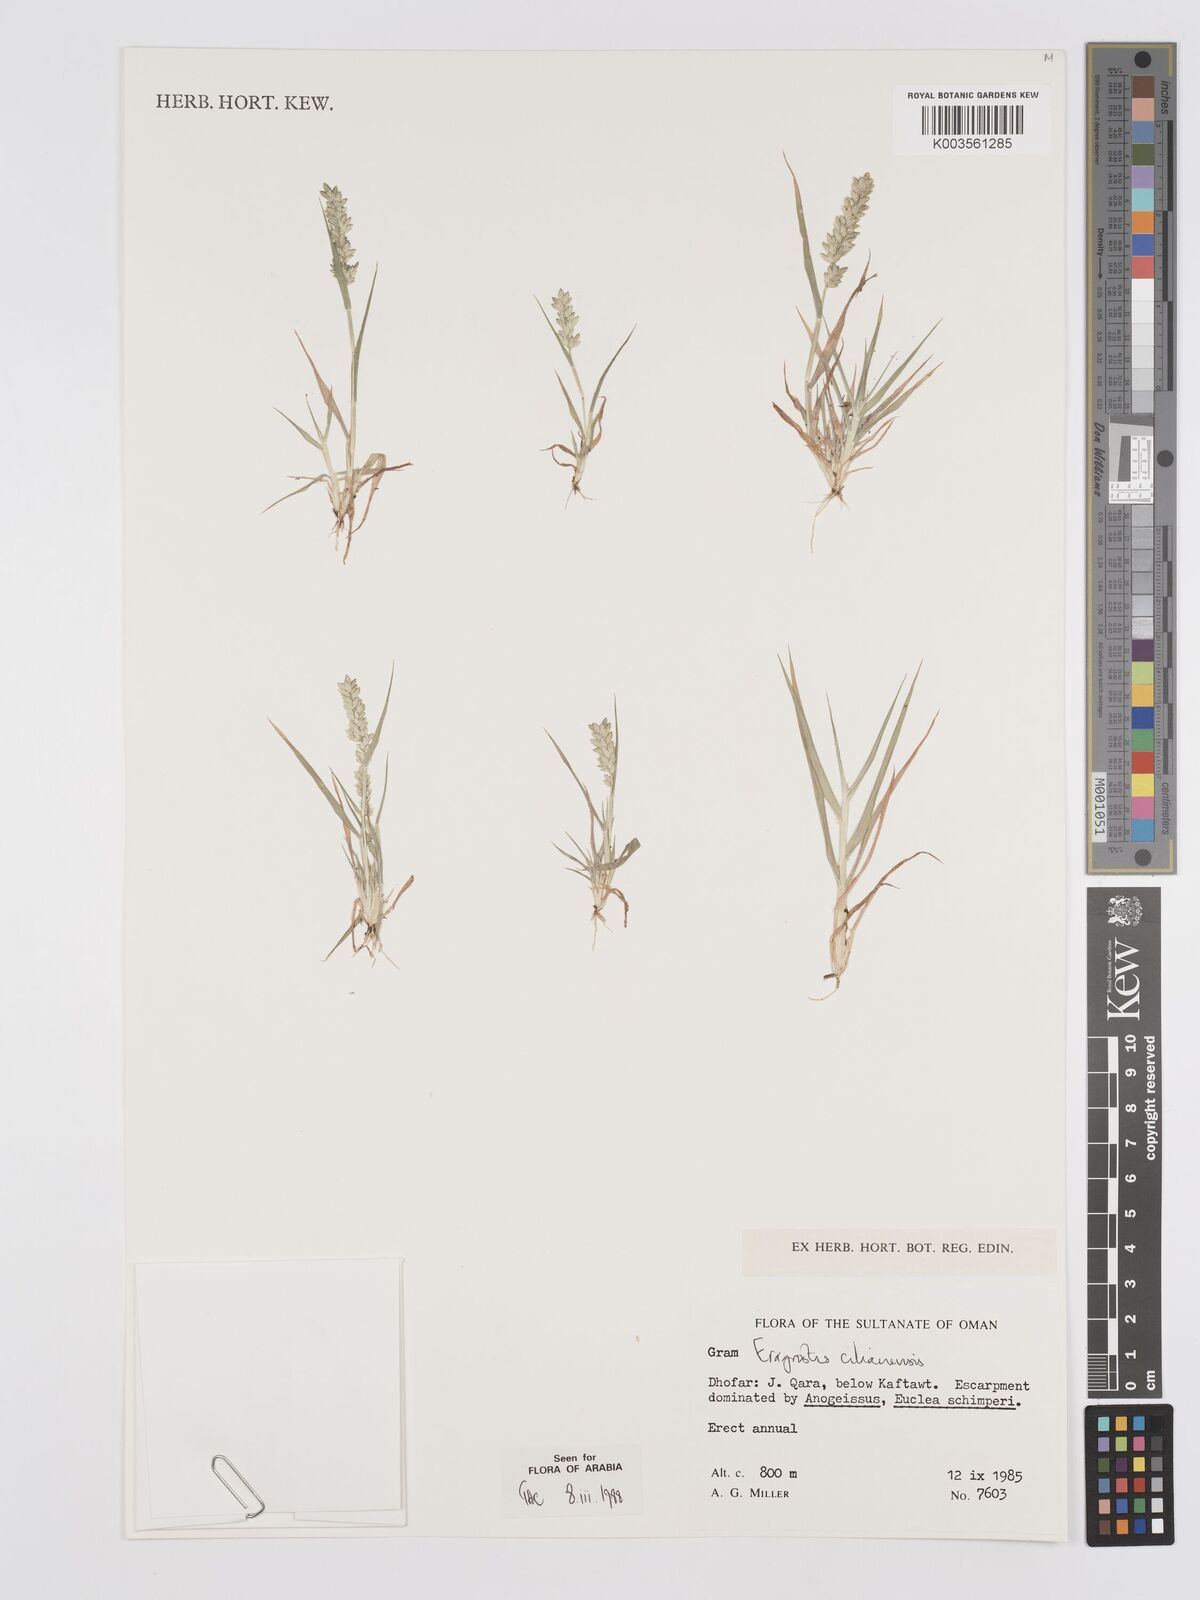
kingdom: Plantae
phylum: Tracheophyta
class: Liliopsida
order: Poales
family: Poaceae
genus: Eragrostis
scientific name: Eragrostis cilianensis
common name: Stinkgrass
